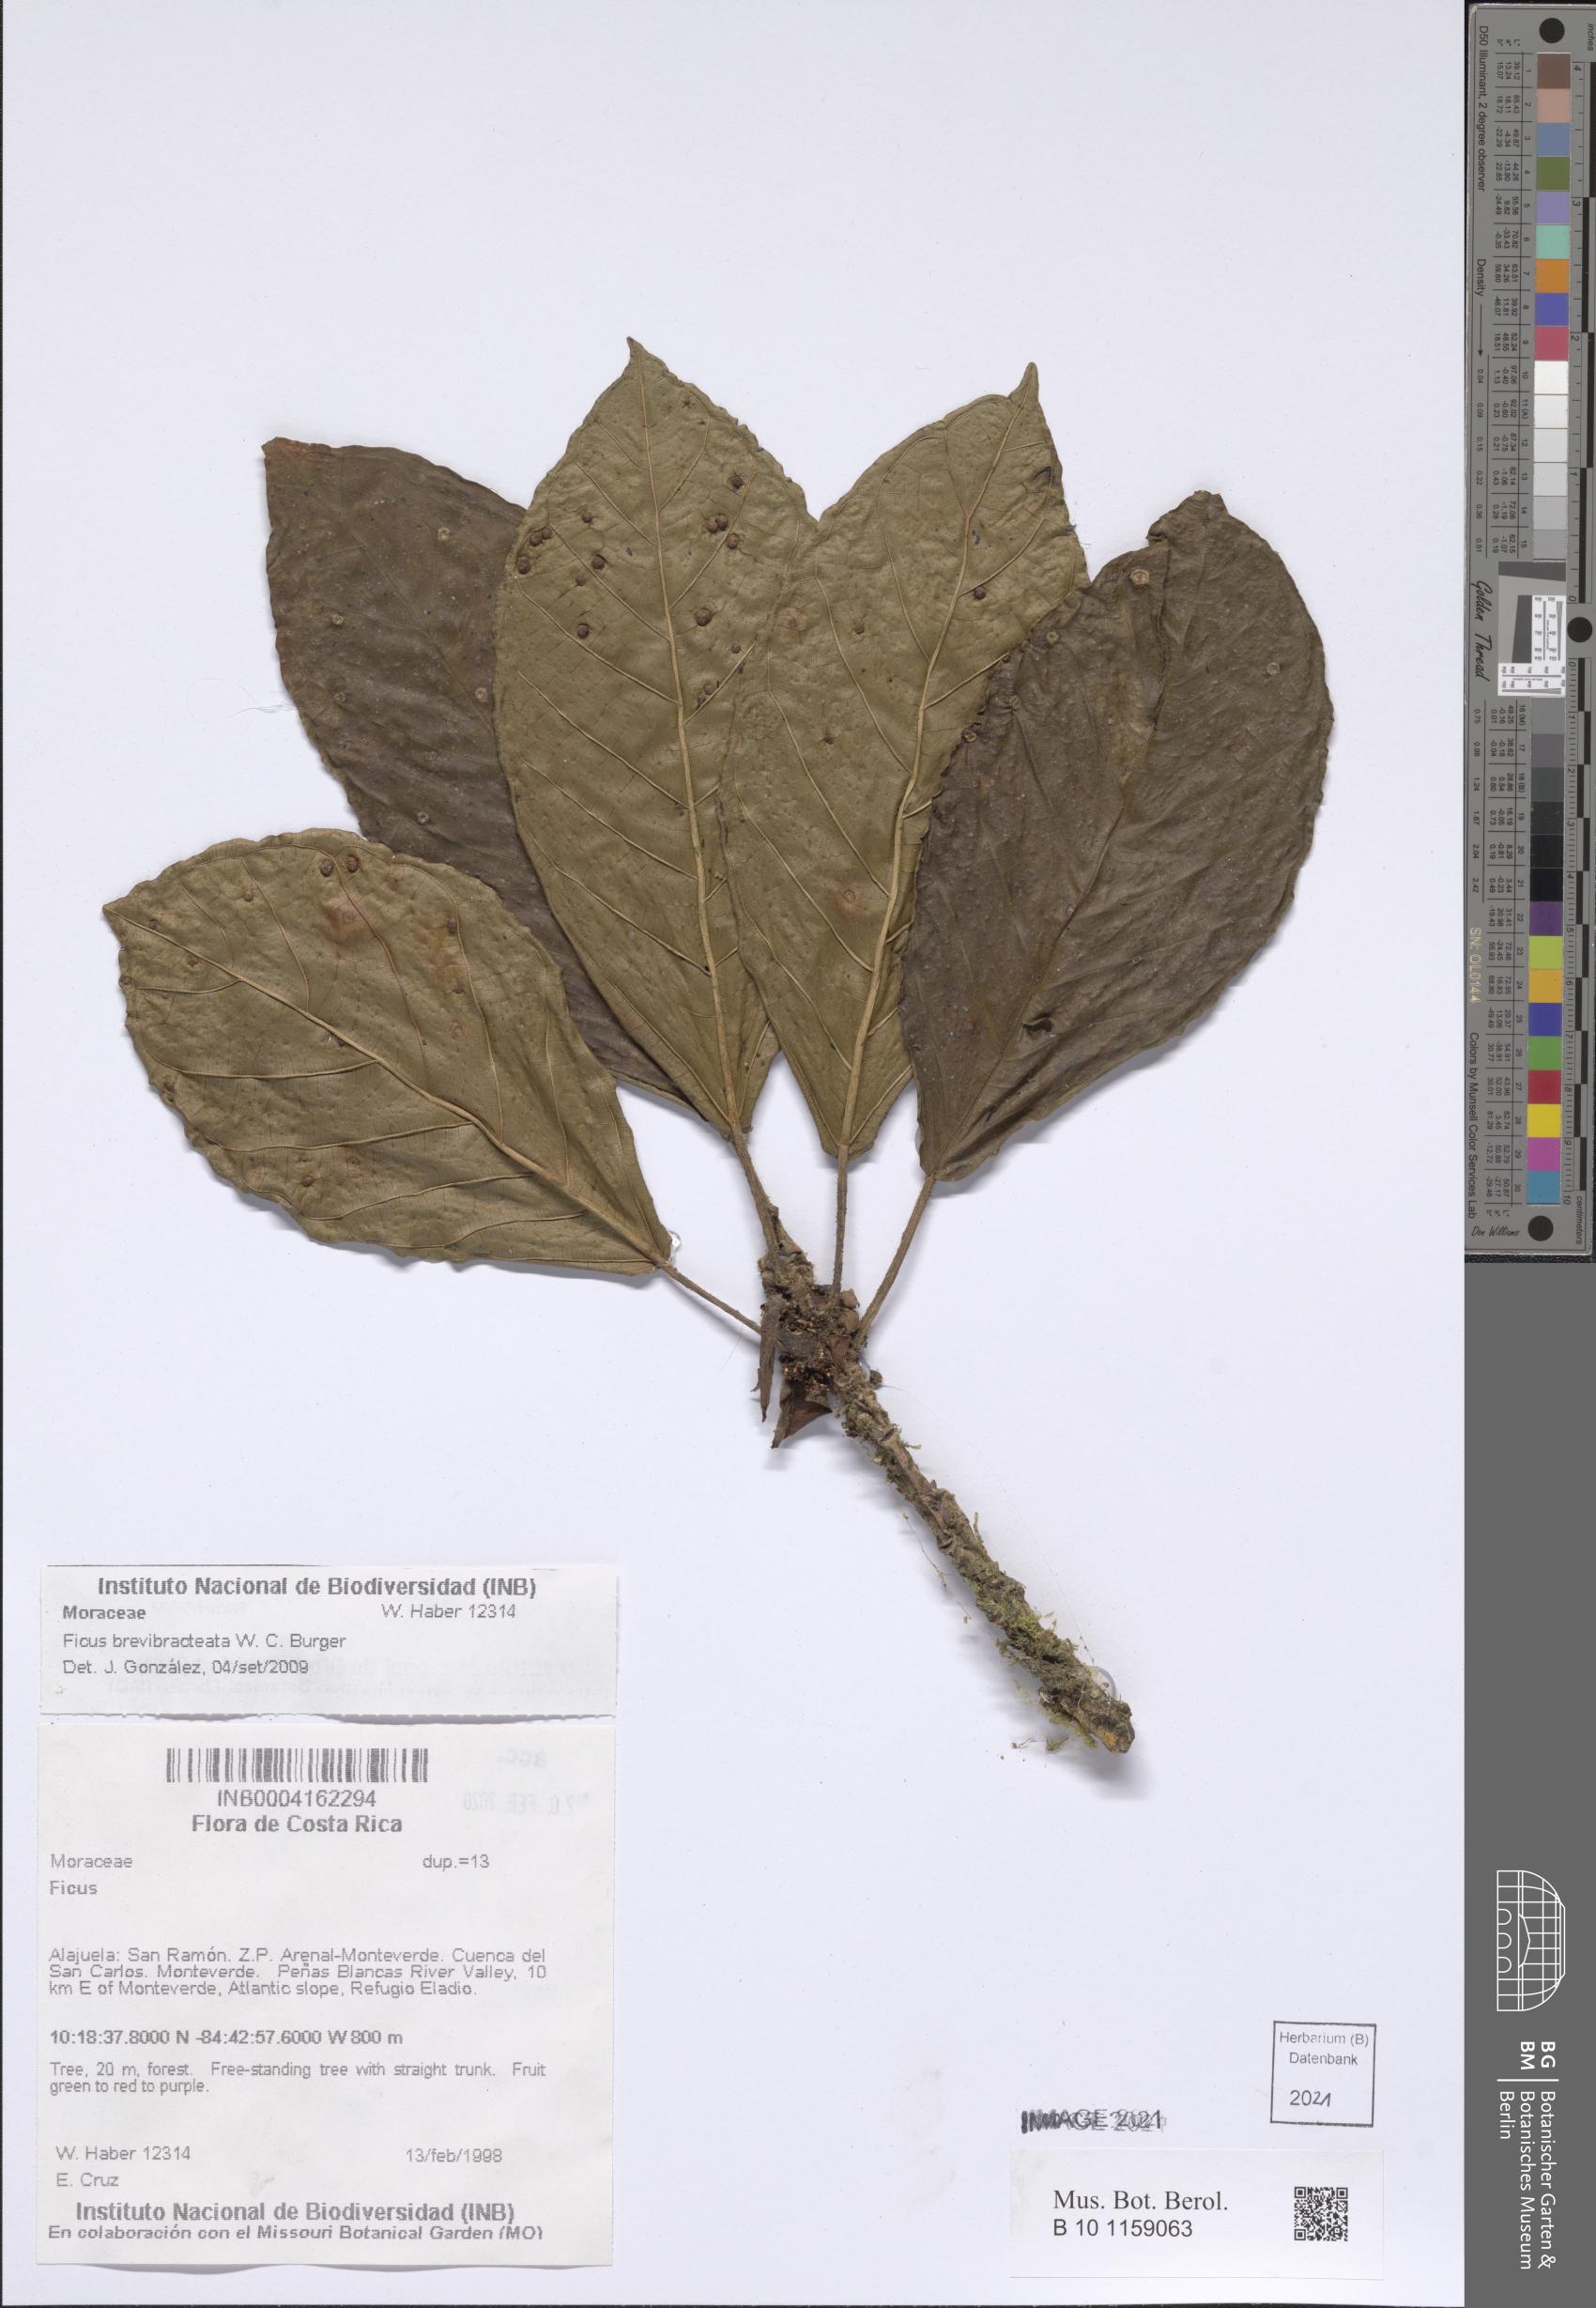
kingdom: Plantae
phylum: Tracheophyta
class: Magnoliopsida
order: Rosales
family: Moraceae
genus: Ficus
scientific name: Ficus brevibracteata
